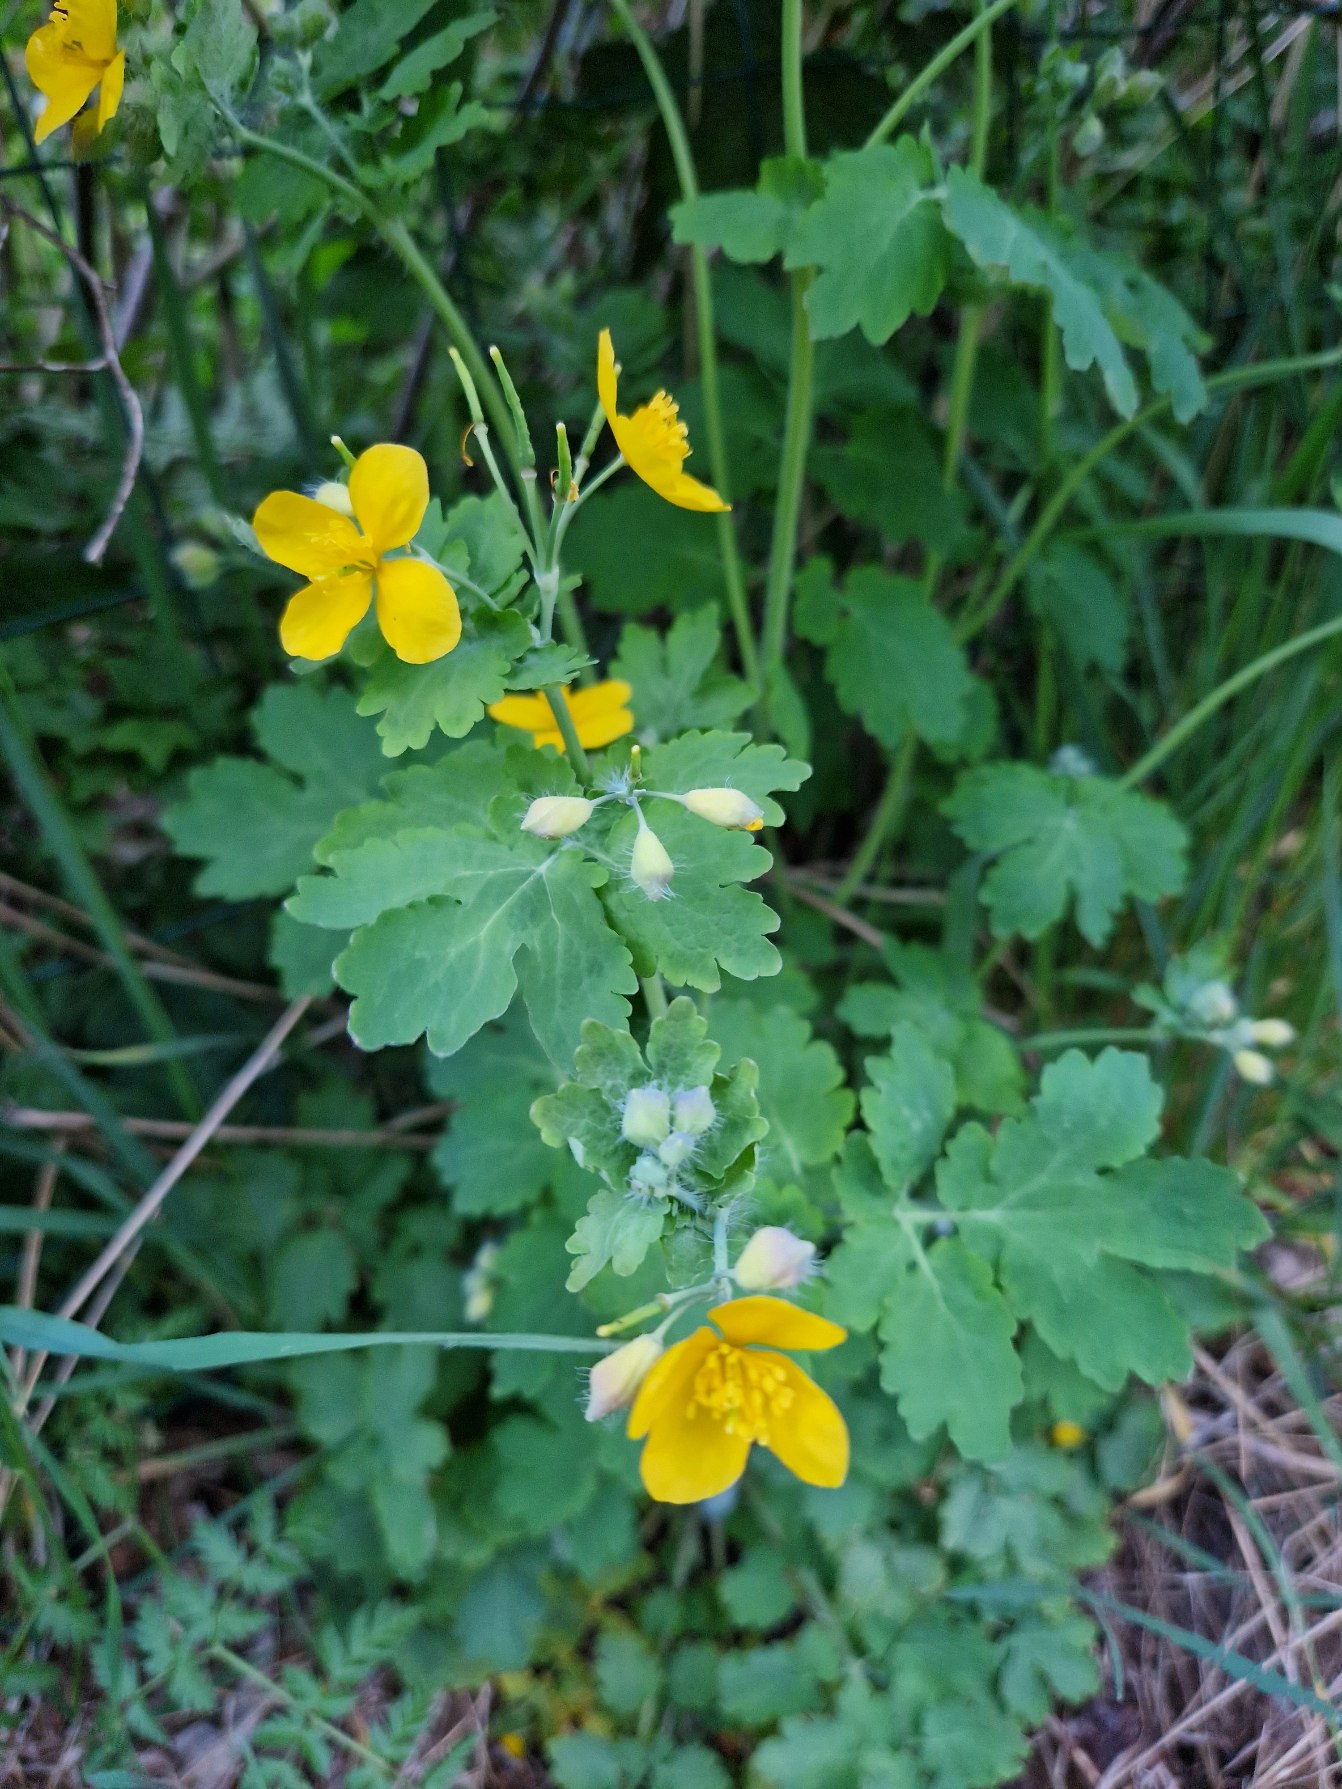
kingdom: Plantae
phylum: Tracheophyta
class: Magnoliopsida
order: Ranunculales
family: Papaveraceae
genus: Chelidonium
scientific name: Chelidonium majus
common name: Svaleurt
